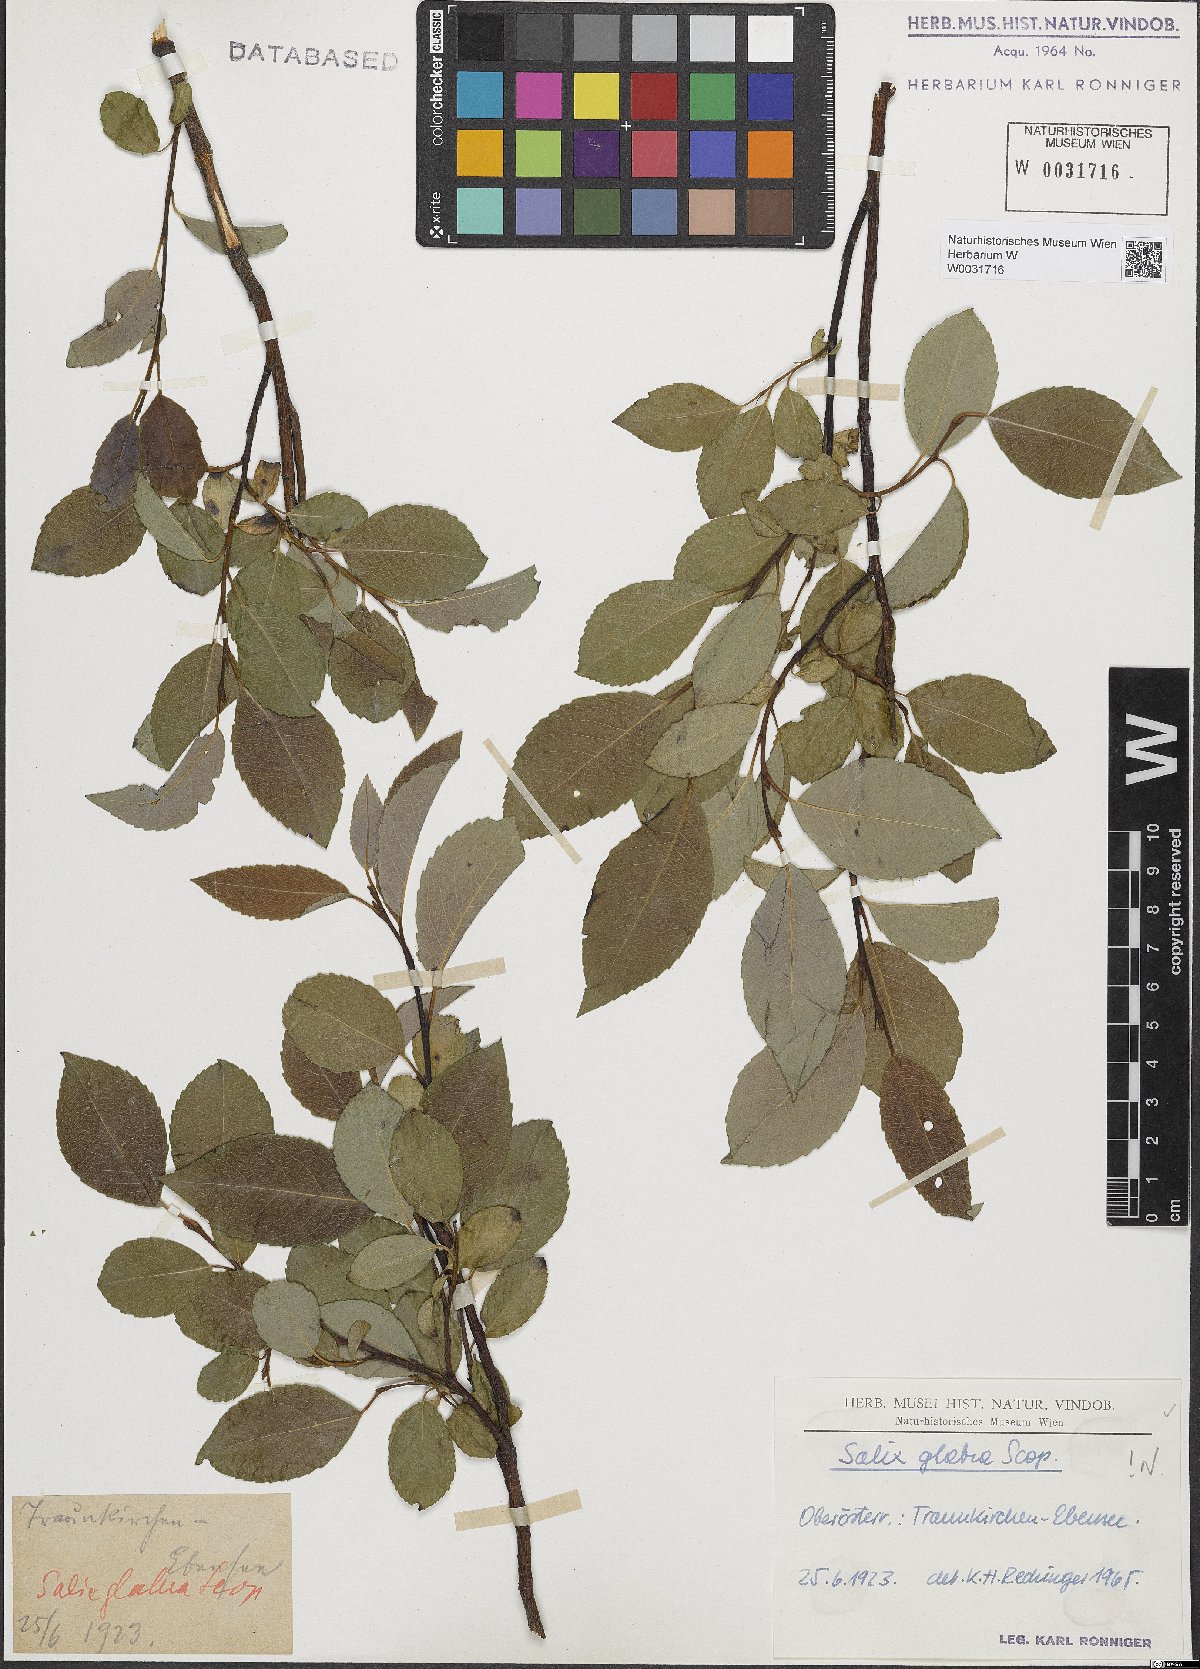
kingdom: Plantae
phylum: Tracheophyta
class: Magnoliopsida
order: Malpighiales
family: Salicaceae
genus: Salix
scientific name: Salix glabra
